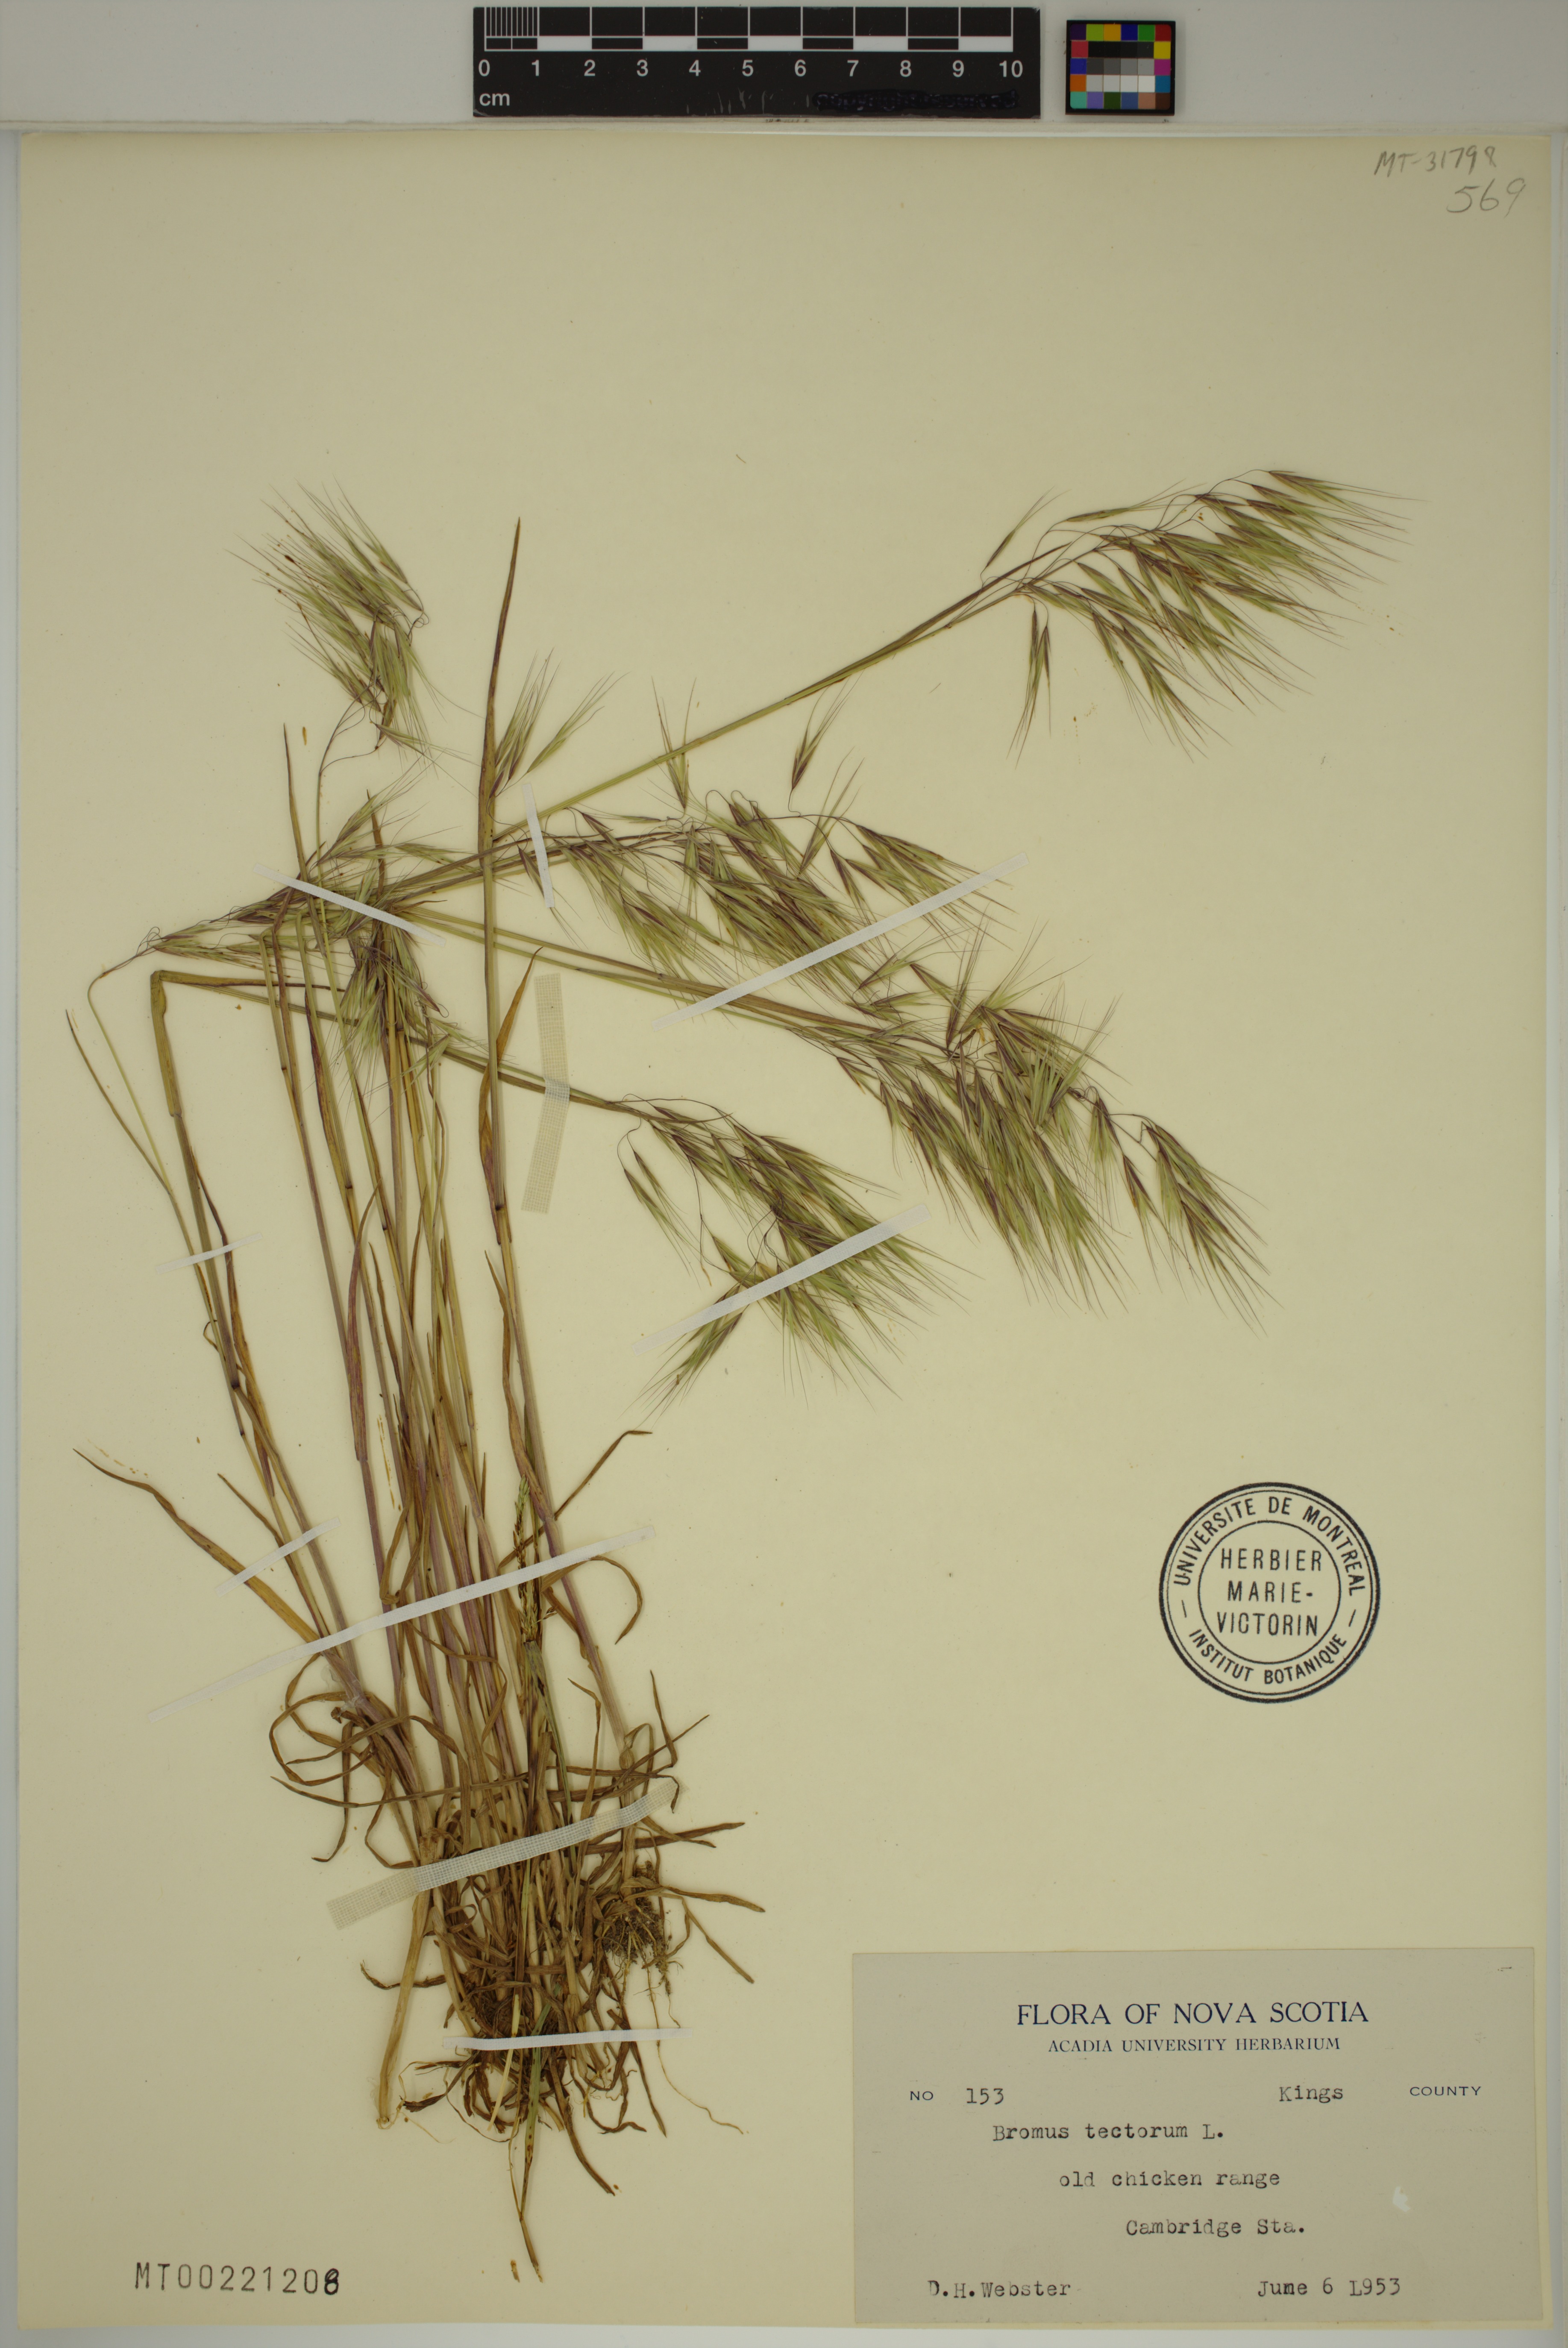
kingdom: Plantae
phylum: Tracheophyta
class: Liliopsida
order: Poales
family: Poaceae
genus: Bromus
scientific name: Bromus tectorum
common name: Cheatgrass
